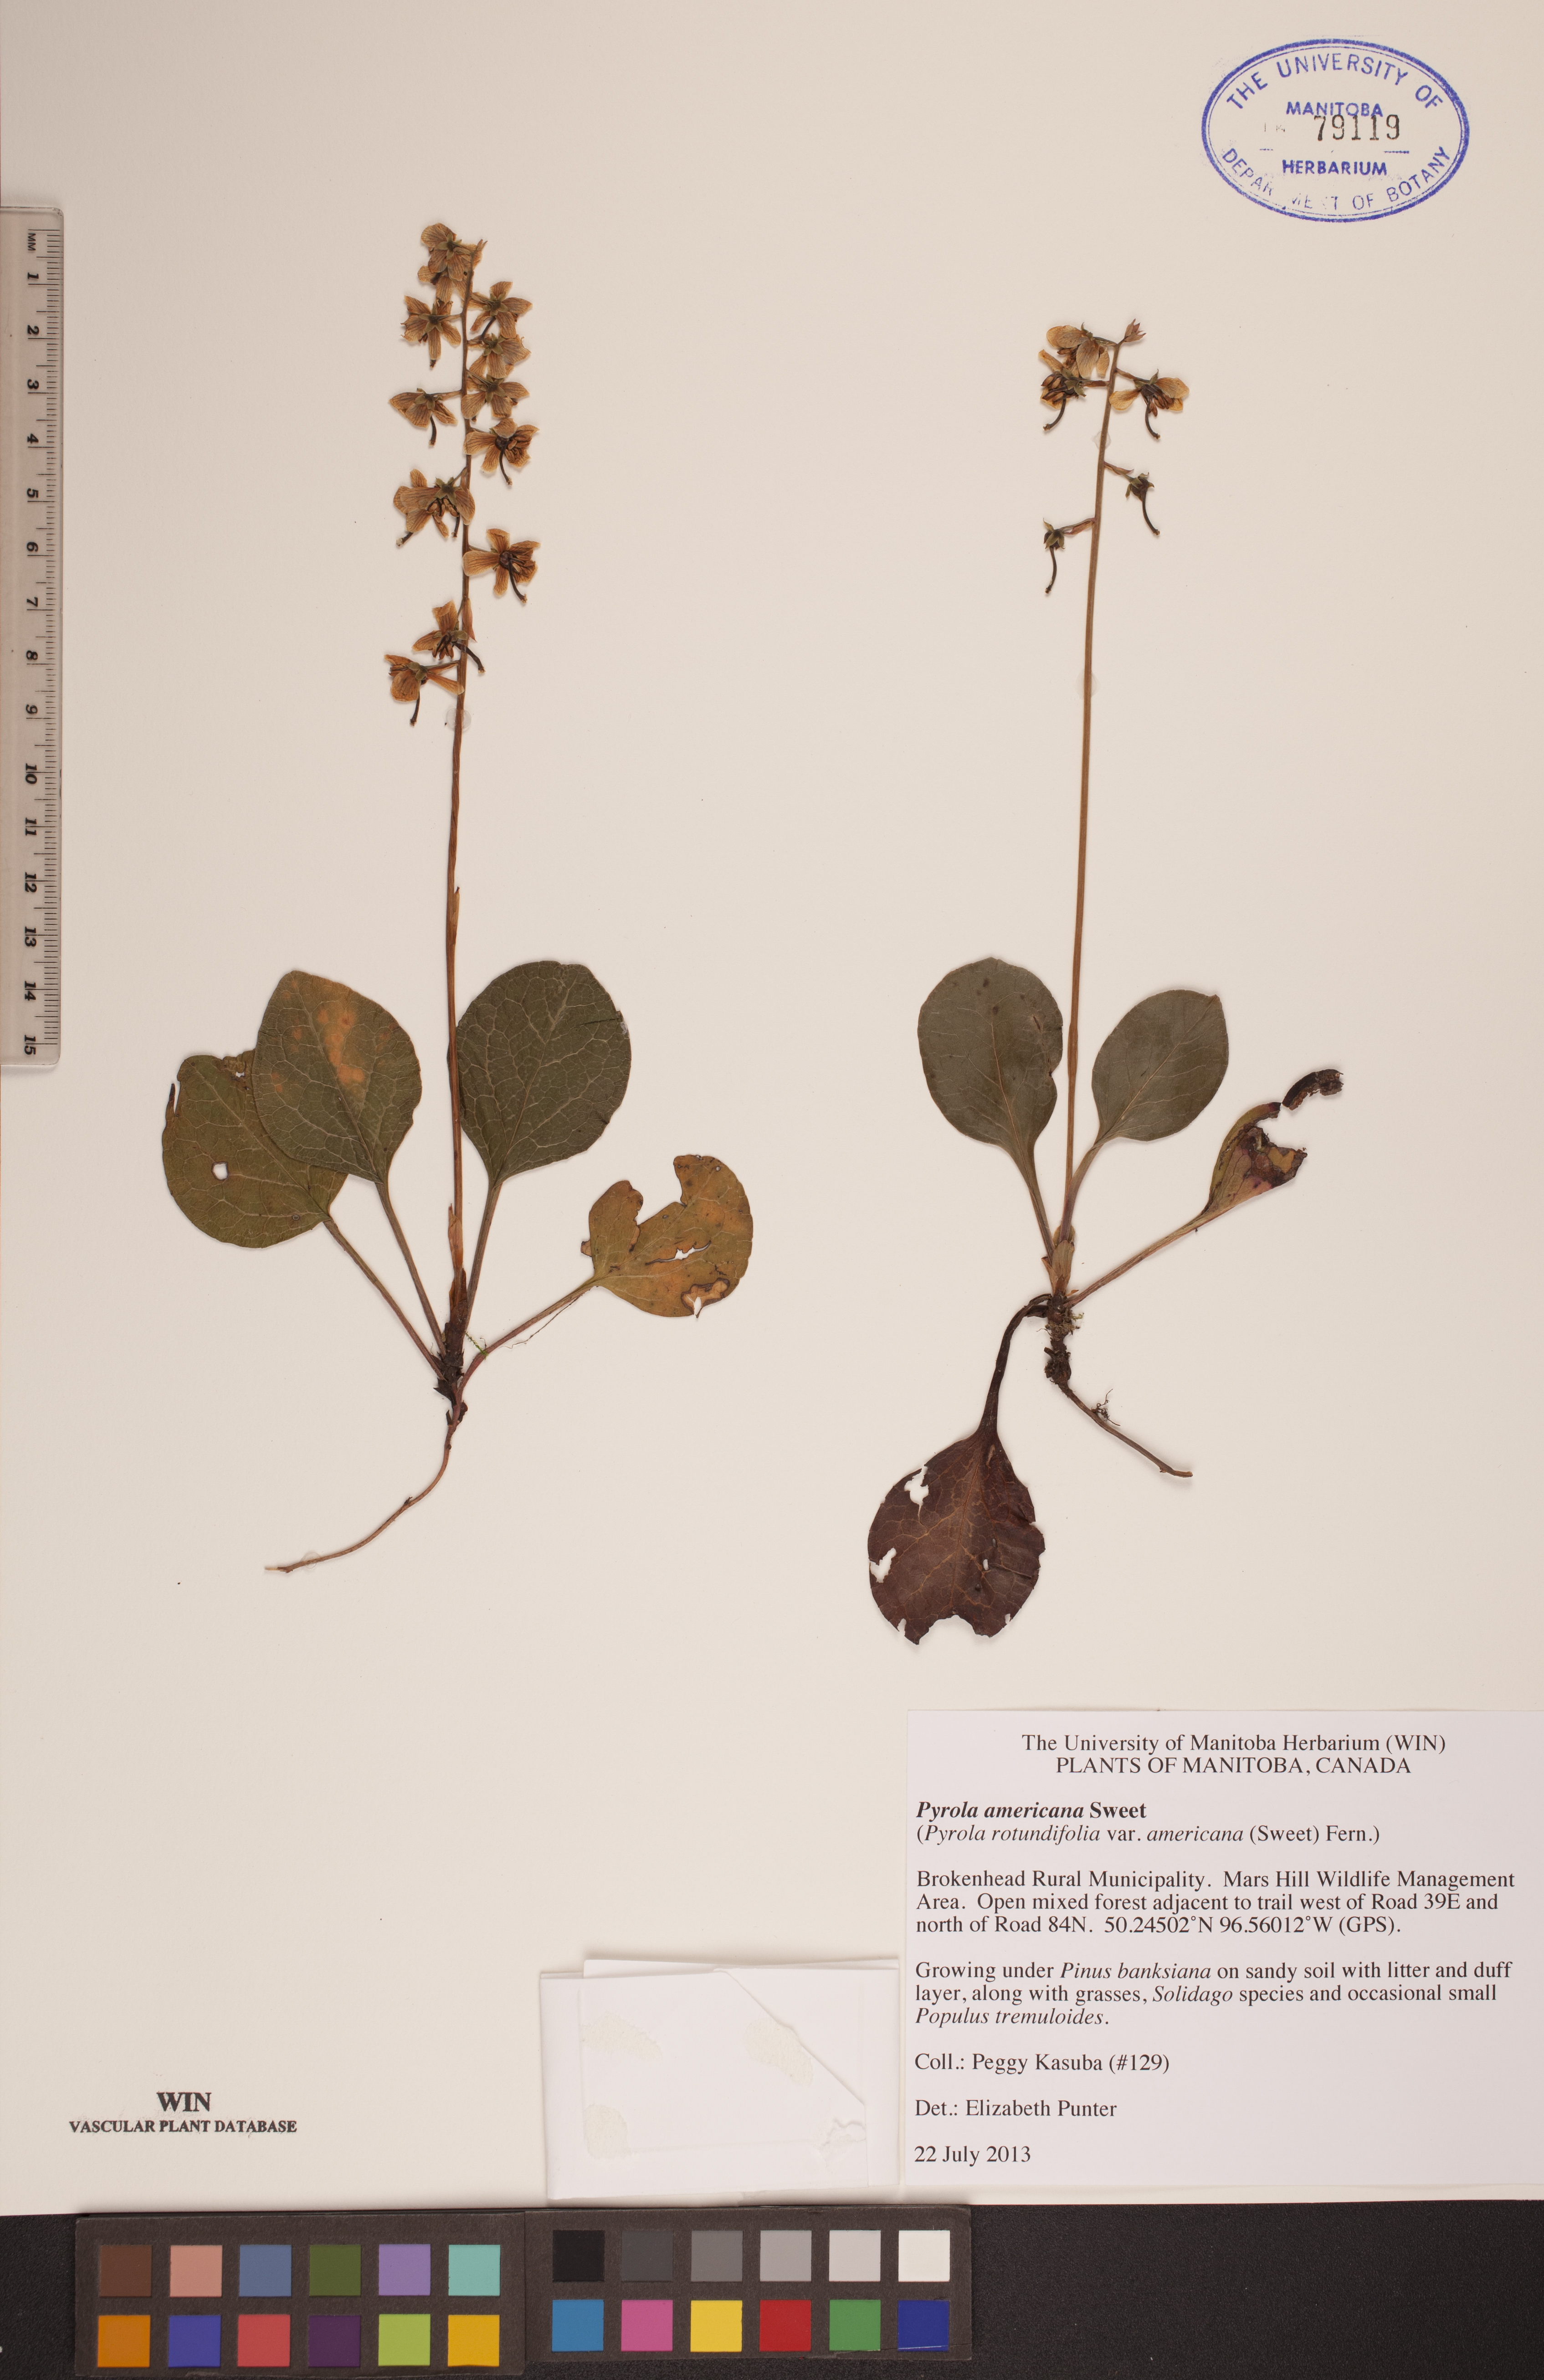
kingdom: Plantae
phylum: Tracheophyta
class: Magnoliopsida
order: Ericales
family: Ericaceae
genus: Pyrola
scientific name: Pyrola americana
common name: American wintergreen
